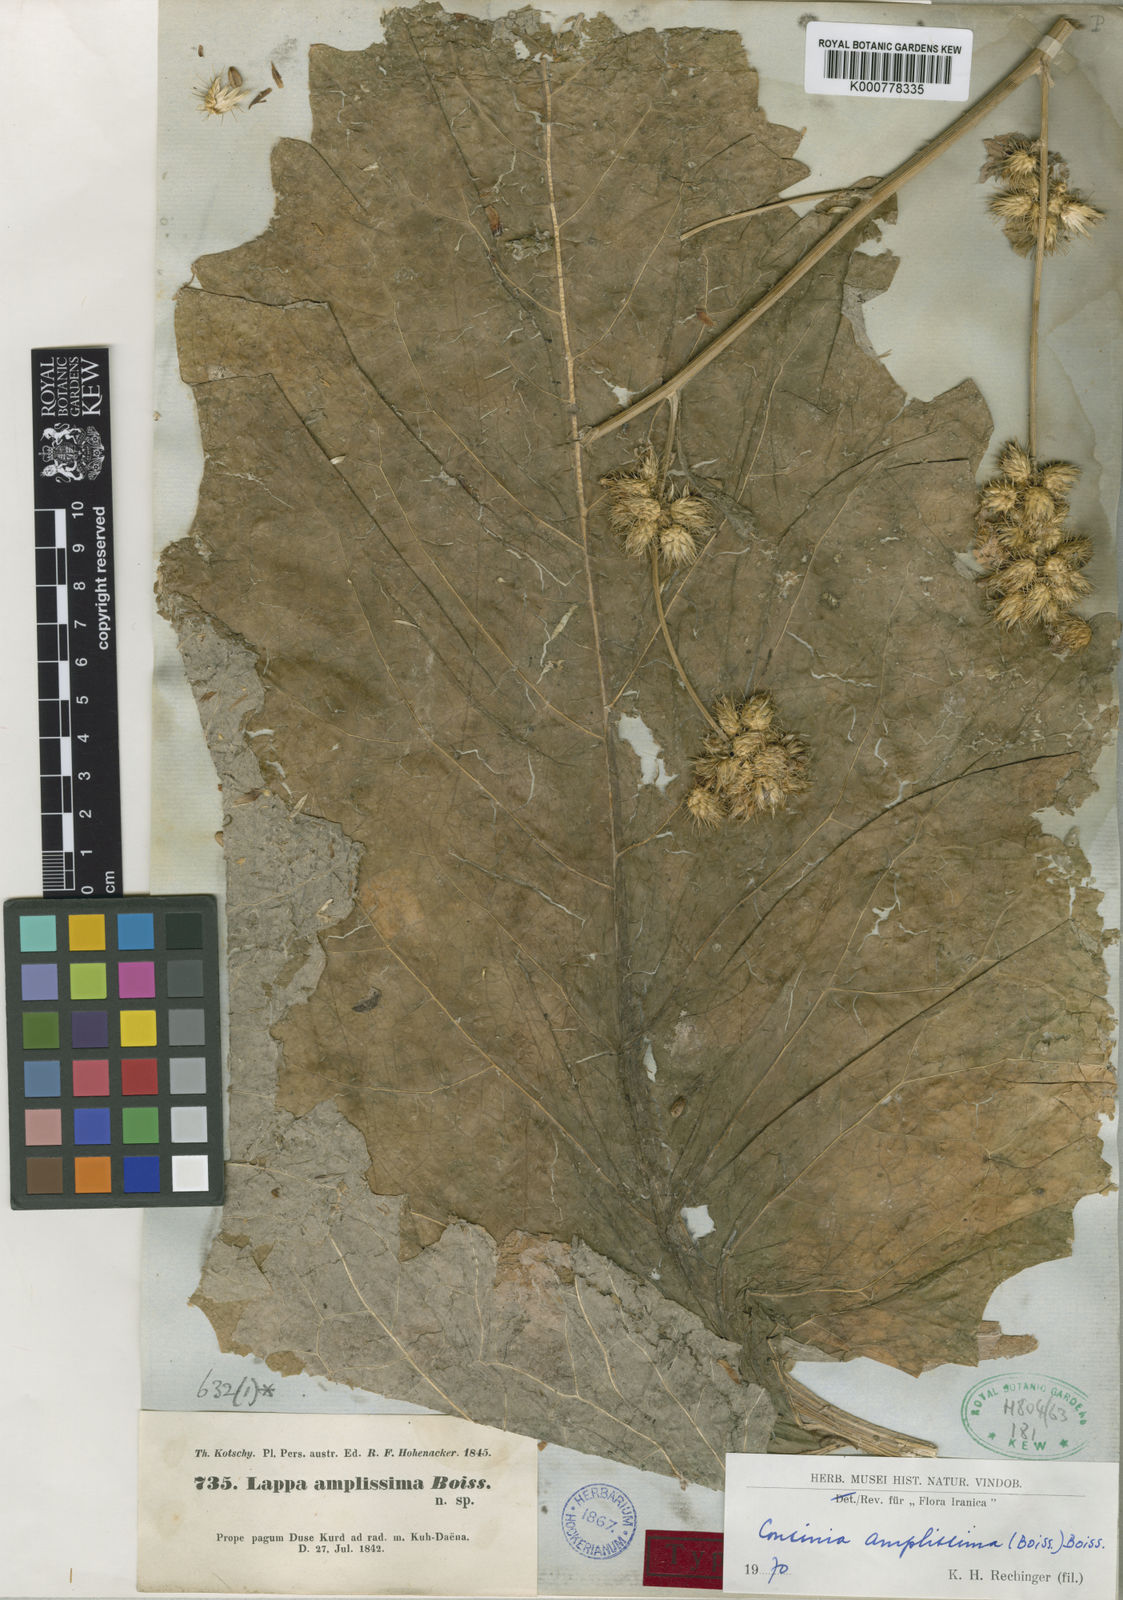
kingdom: Plantae
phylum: Tracheophyta
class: Magnoliopsida
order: Asterales
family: Asteraceae
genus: Arctium
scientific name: Arctium amplissimum
